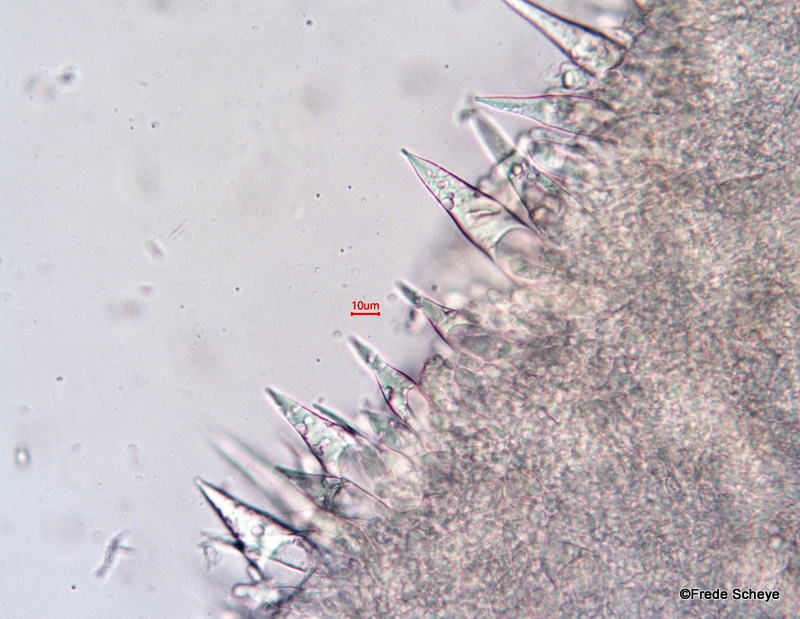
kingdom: Fungi
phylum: Basidiomycota
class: Agaricomycetes
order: Agaricales
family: Macrocystidiaceae
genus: Macrocystidia
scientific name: Macrocystidia cucumis
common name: agurkehat
